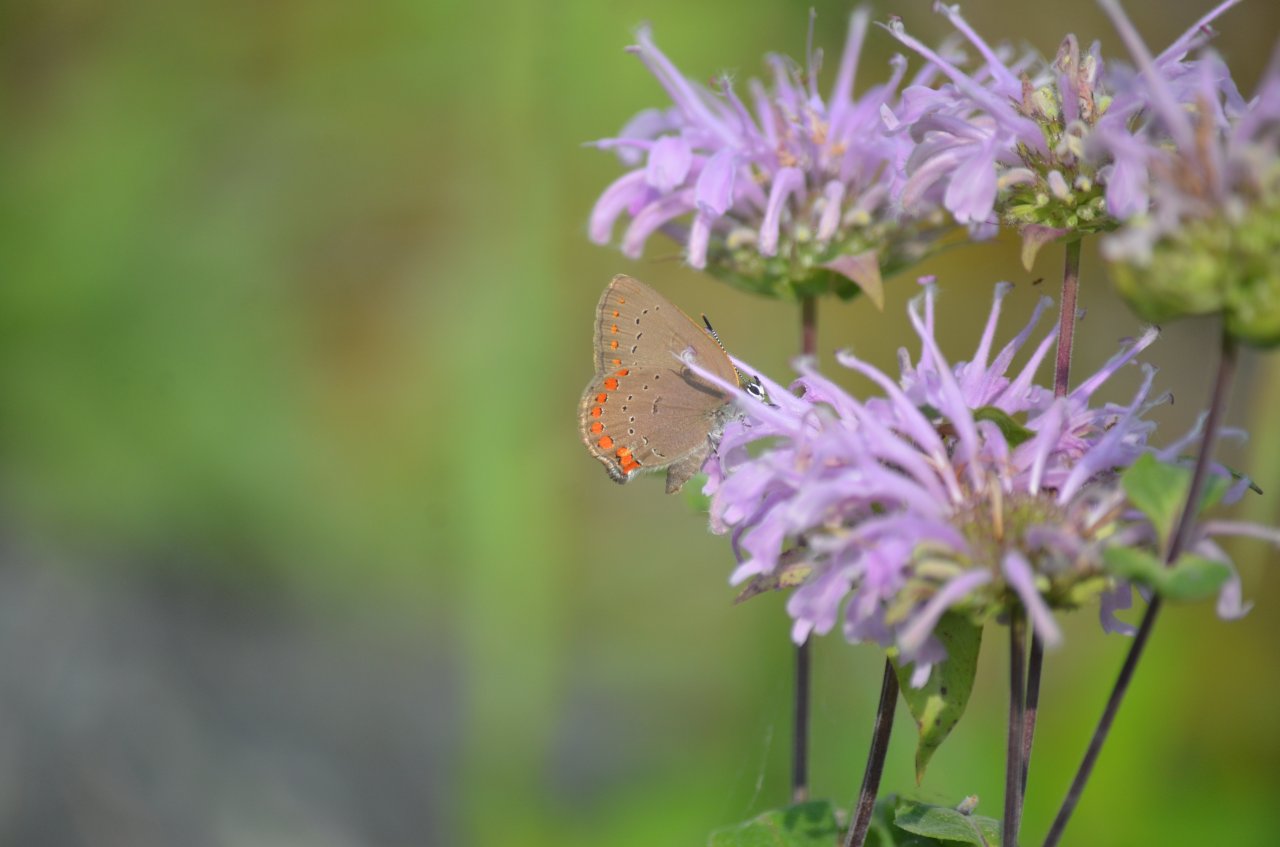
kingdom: Animalia
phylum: Arthropoda
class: Insecta
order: Lepidoptera
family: Lycaenidae
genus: Harkenclenus
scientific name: Harkenclenus titus
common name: Coral Hairstreak
